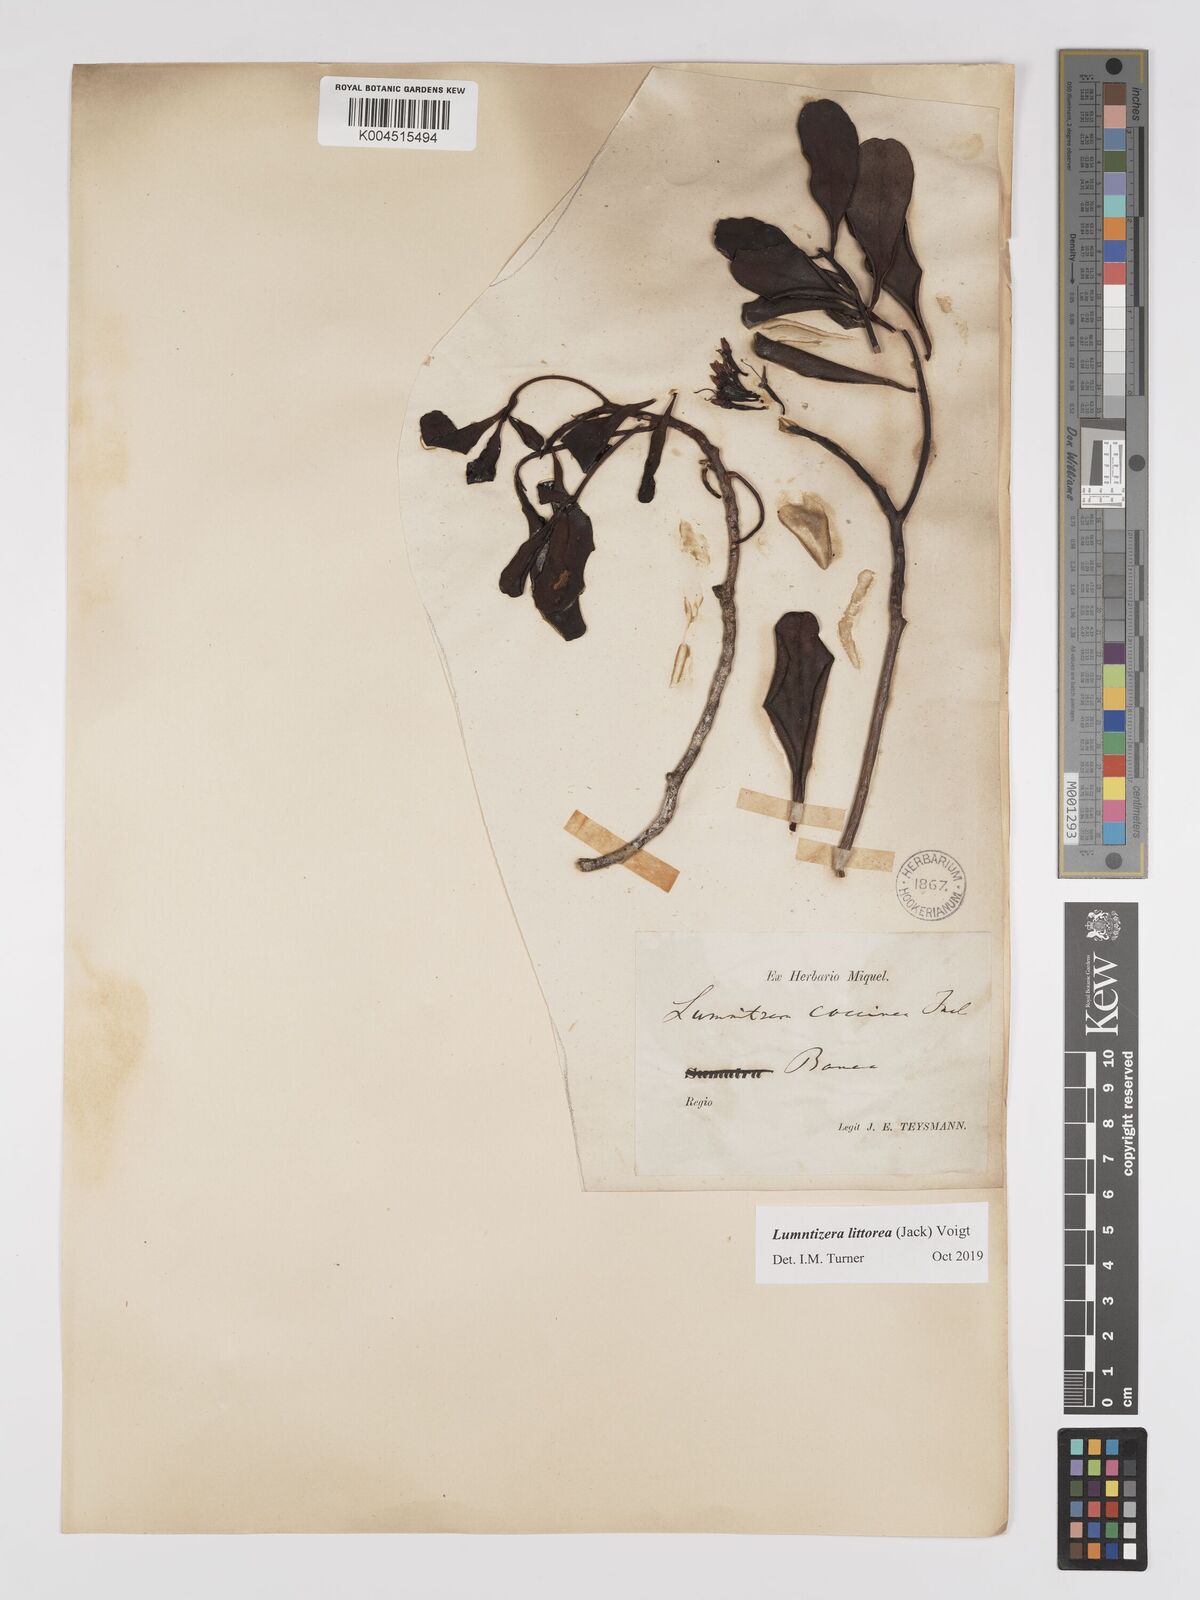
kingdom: Plantae
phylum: Tracheophyta
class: Magnoliopsida
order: Myrtales
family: Combretaceae
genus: Lumnitzera
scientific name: Lumnitzera littorea
